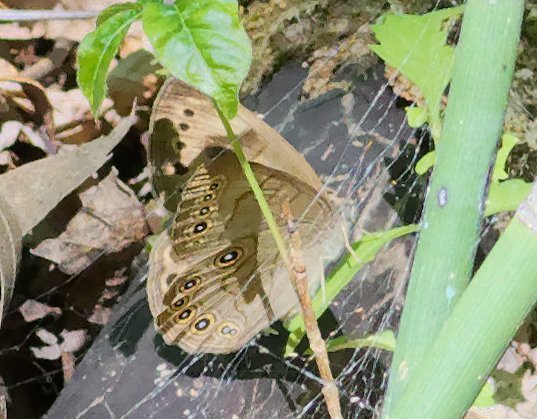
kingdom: Animalia
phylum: Arthropoda
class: Insecta
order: Lepidoptera
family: Nymphalidae
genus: Lethe
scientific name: Lethe eurydice
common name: Appalachian Eyed Brown
